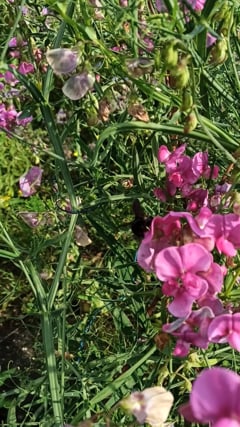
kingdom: Animalia
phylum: Arthropoda
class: Insecta
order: Hymenoptera
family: Apidae
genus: Xylocopa
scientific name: Xylocopa violacea
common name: Violet carpenter bee
